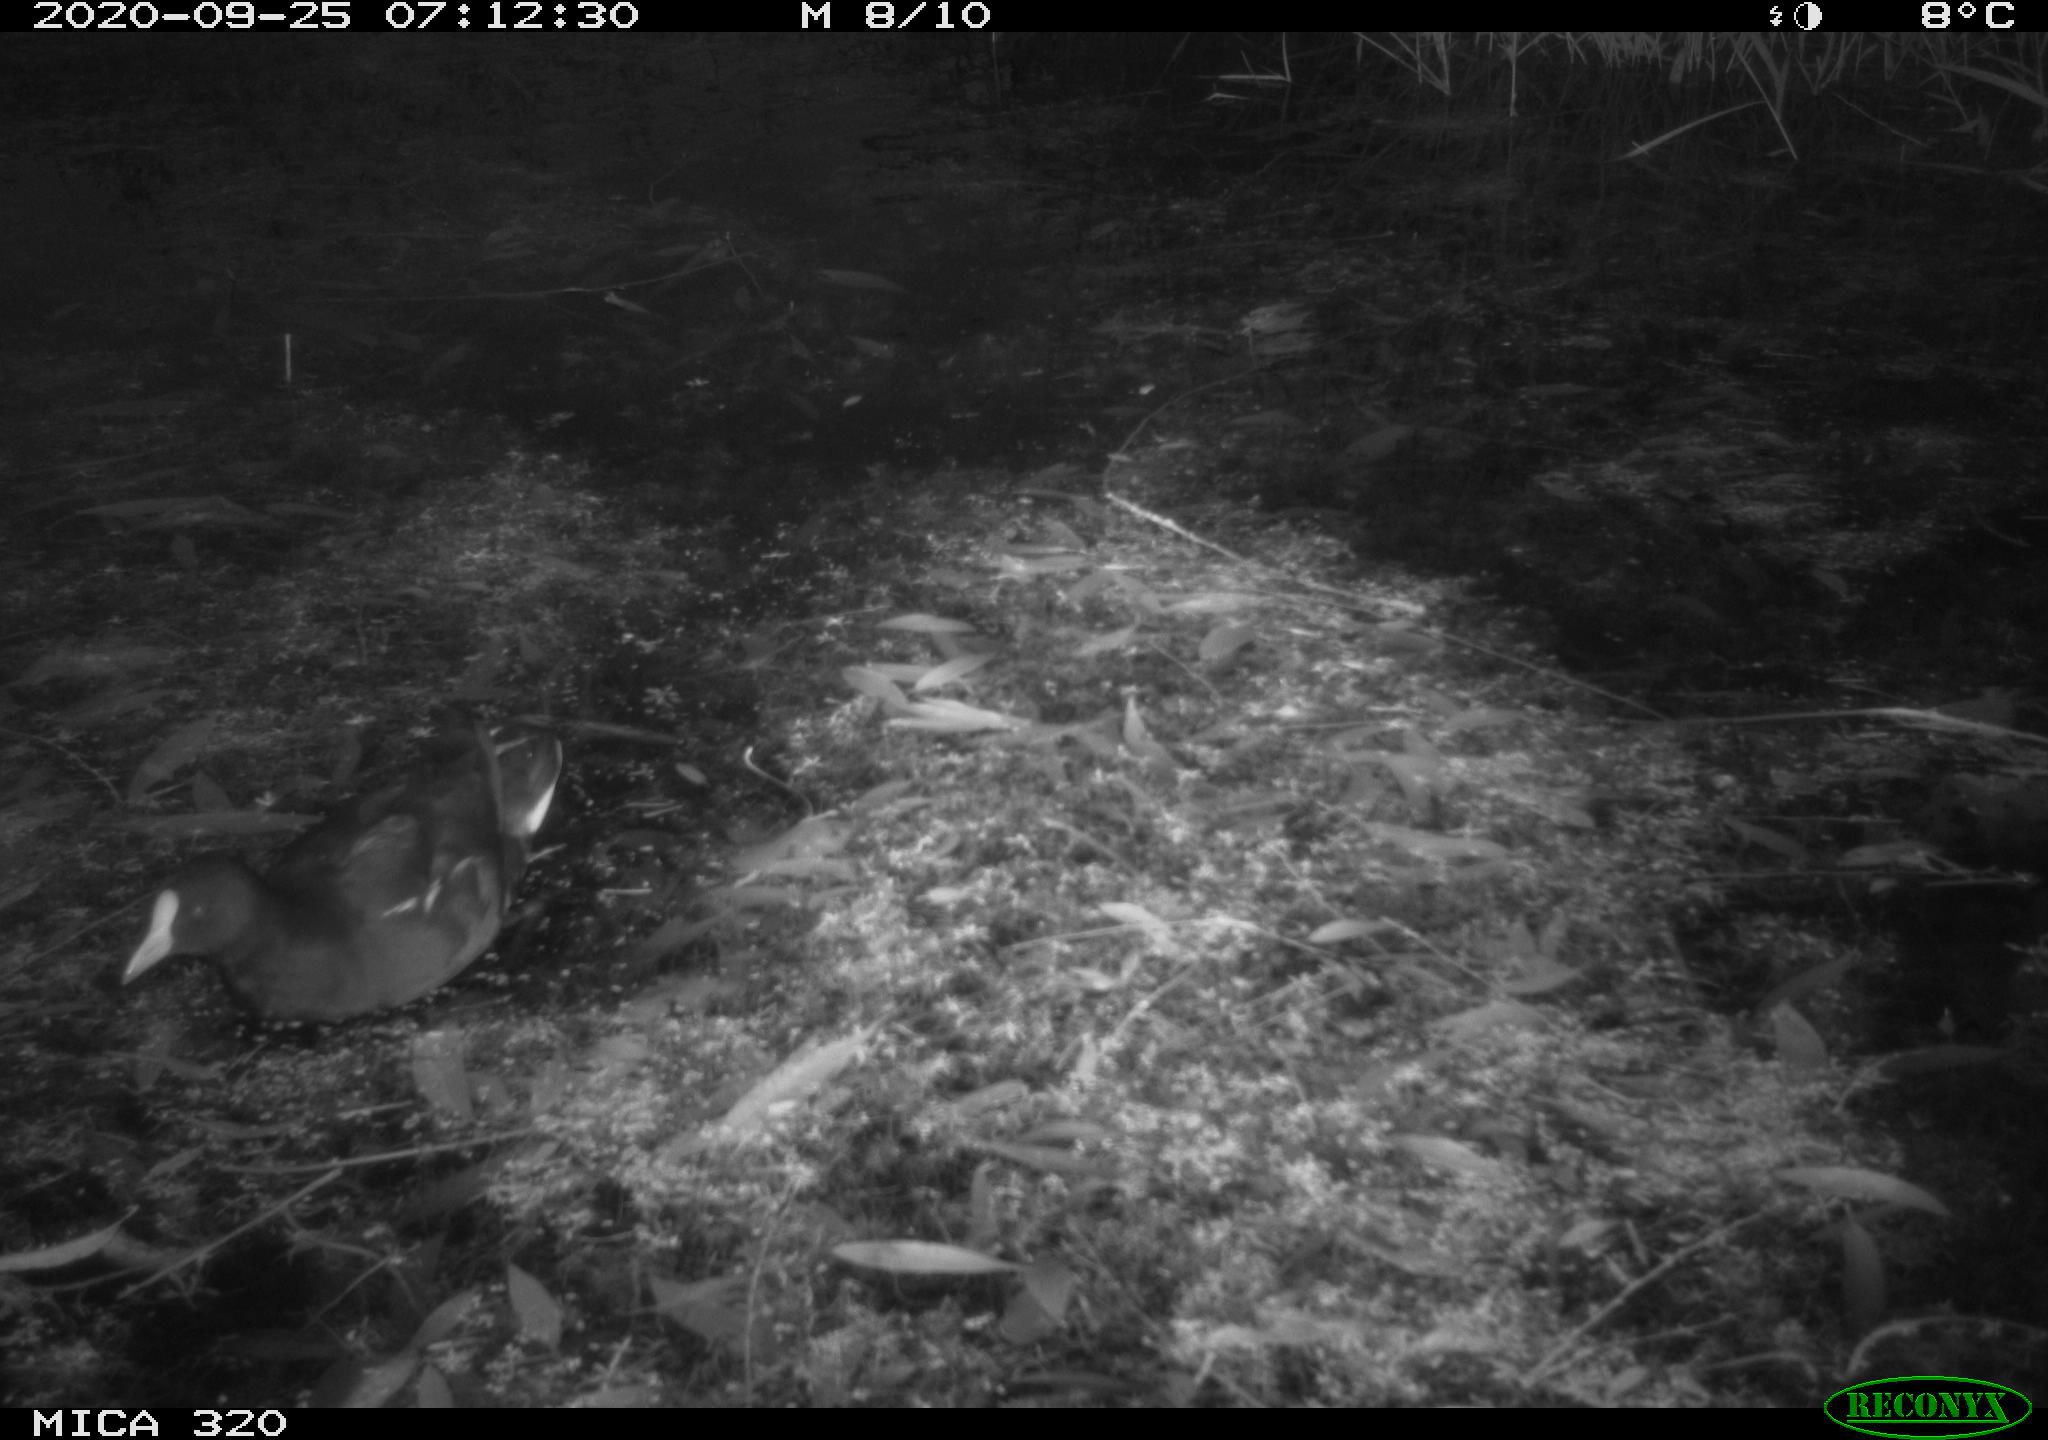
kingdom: Animalia
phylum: Chordata
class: Aves
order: Gruiformes
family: Rallidae
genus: Gallinula
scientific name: Gallinula chloropus
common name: Common moorhen
